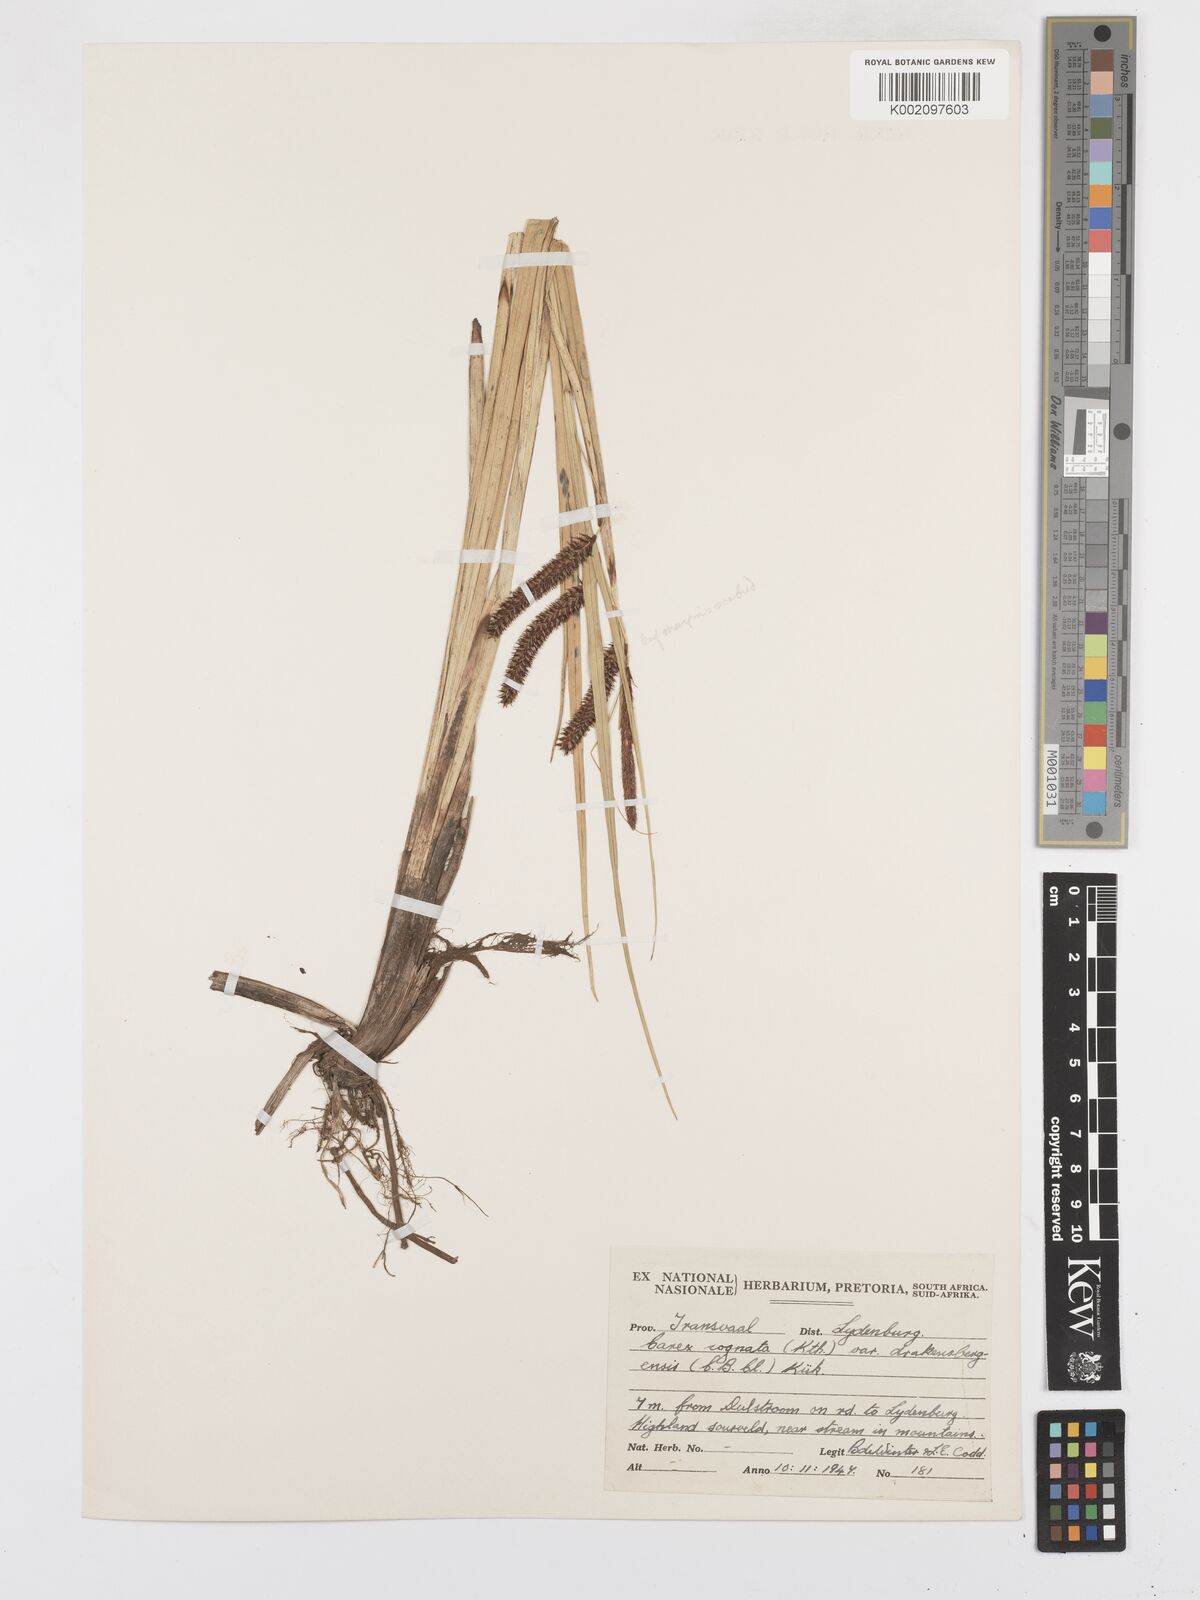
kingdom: Plantae
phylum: Tracheophyta
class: Liliopsida
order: Poales
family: Cyperaceae
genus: Carex
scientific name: Carex cognata
